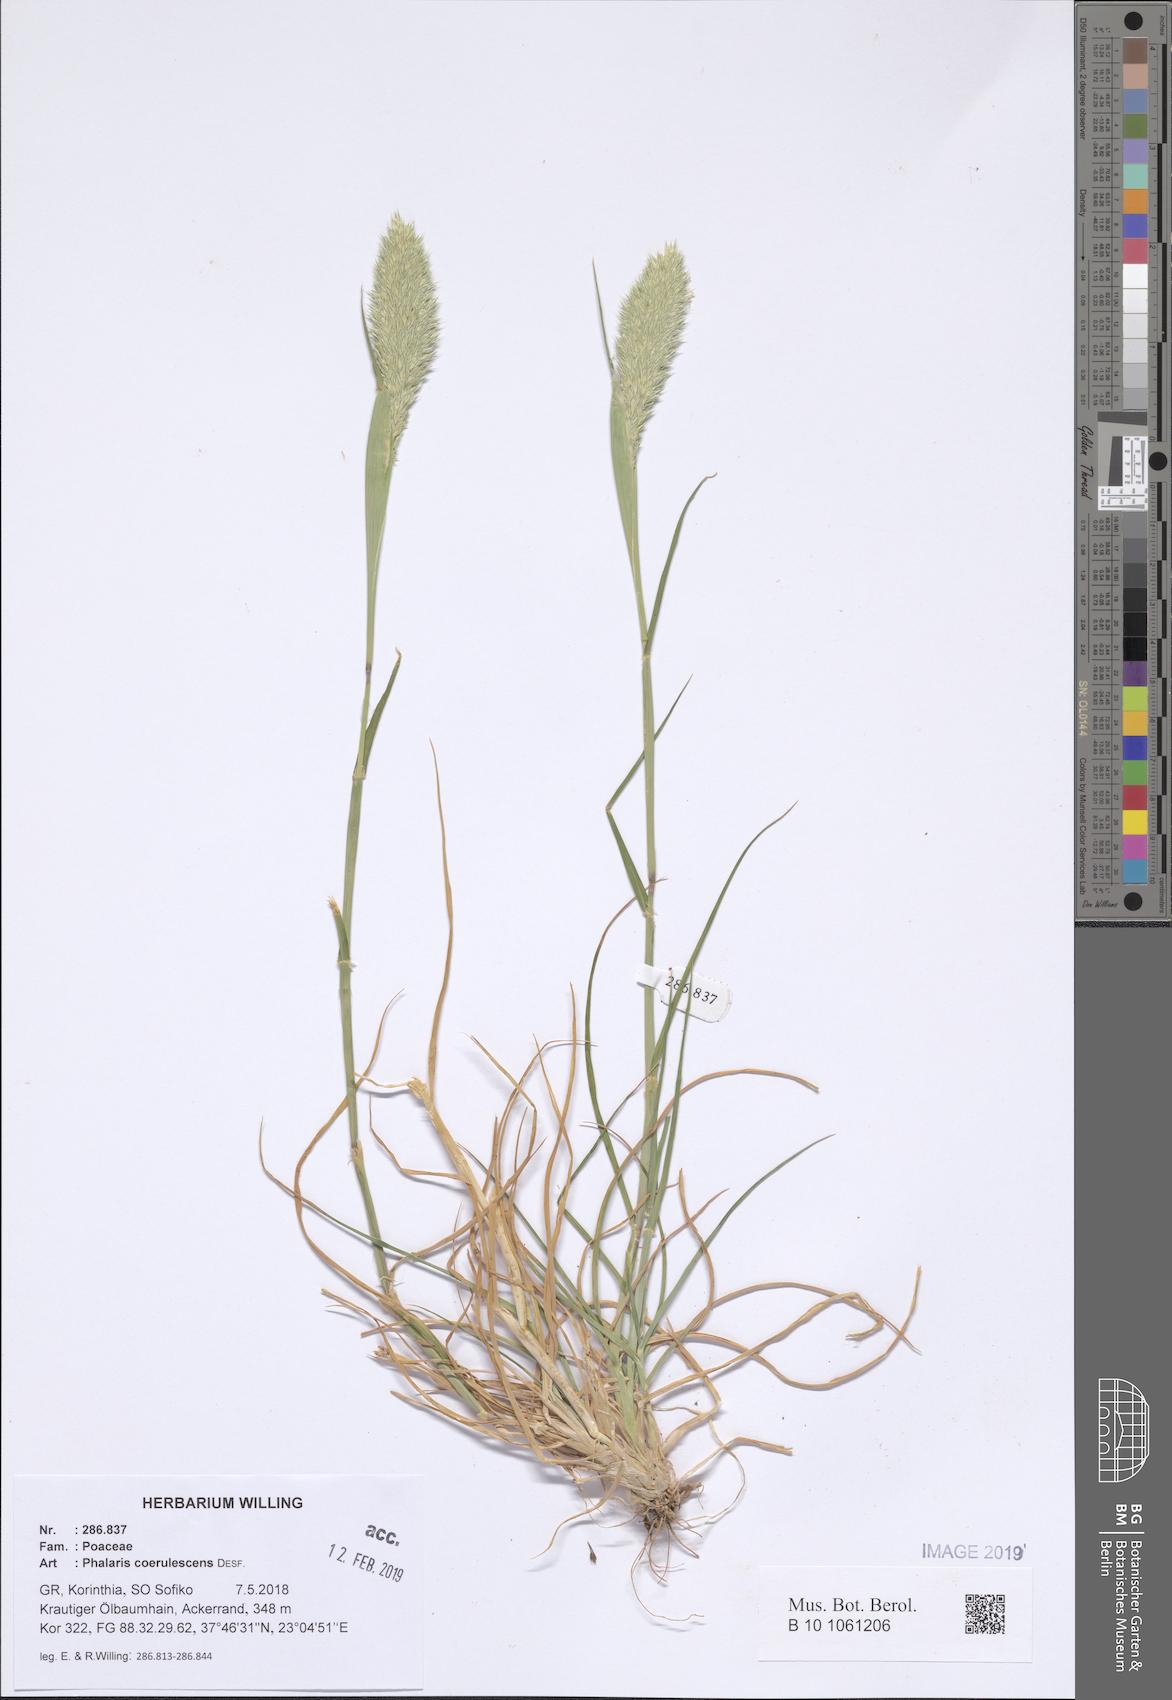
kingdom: Plantae
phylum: Tracheophyta
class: Liliopsida
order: Poales
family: Poaceae
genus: Phalaris
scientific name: Phalaris coerulescens
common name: Sunolgrass
